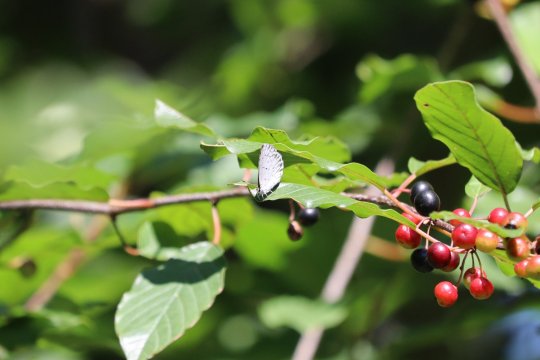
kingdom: Animalia
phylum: Arthropoda
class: Insecta
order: Lepidoptera
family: Lycaenidae
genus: Cyaniris
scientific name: Cyaniris neglecta
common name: Summer Azure
